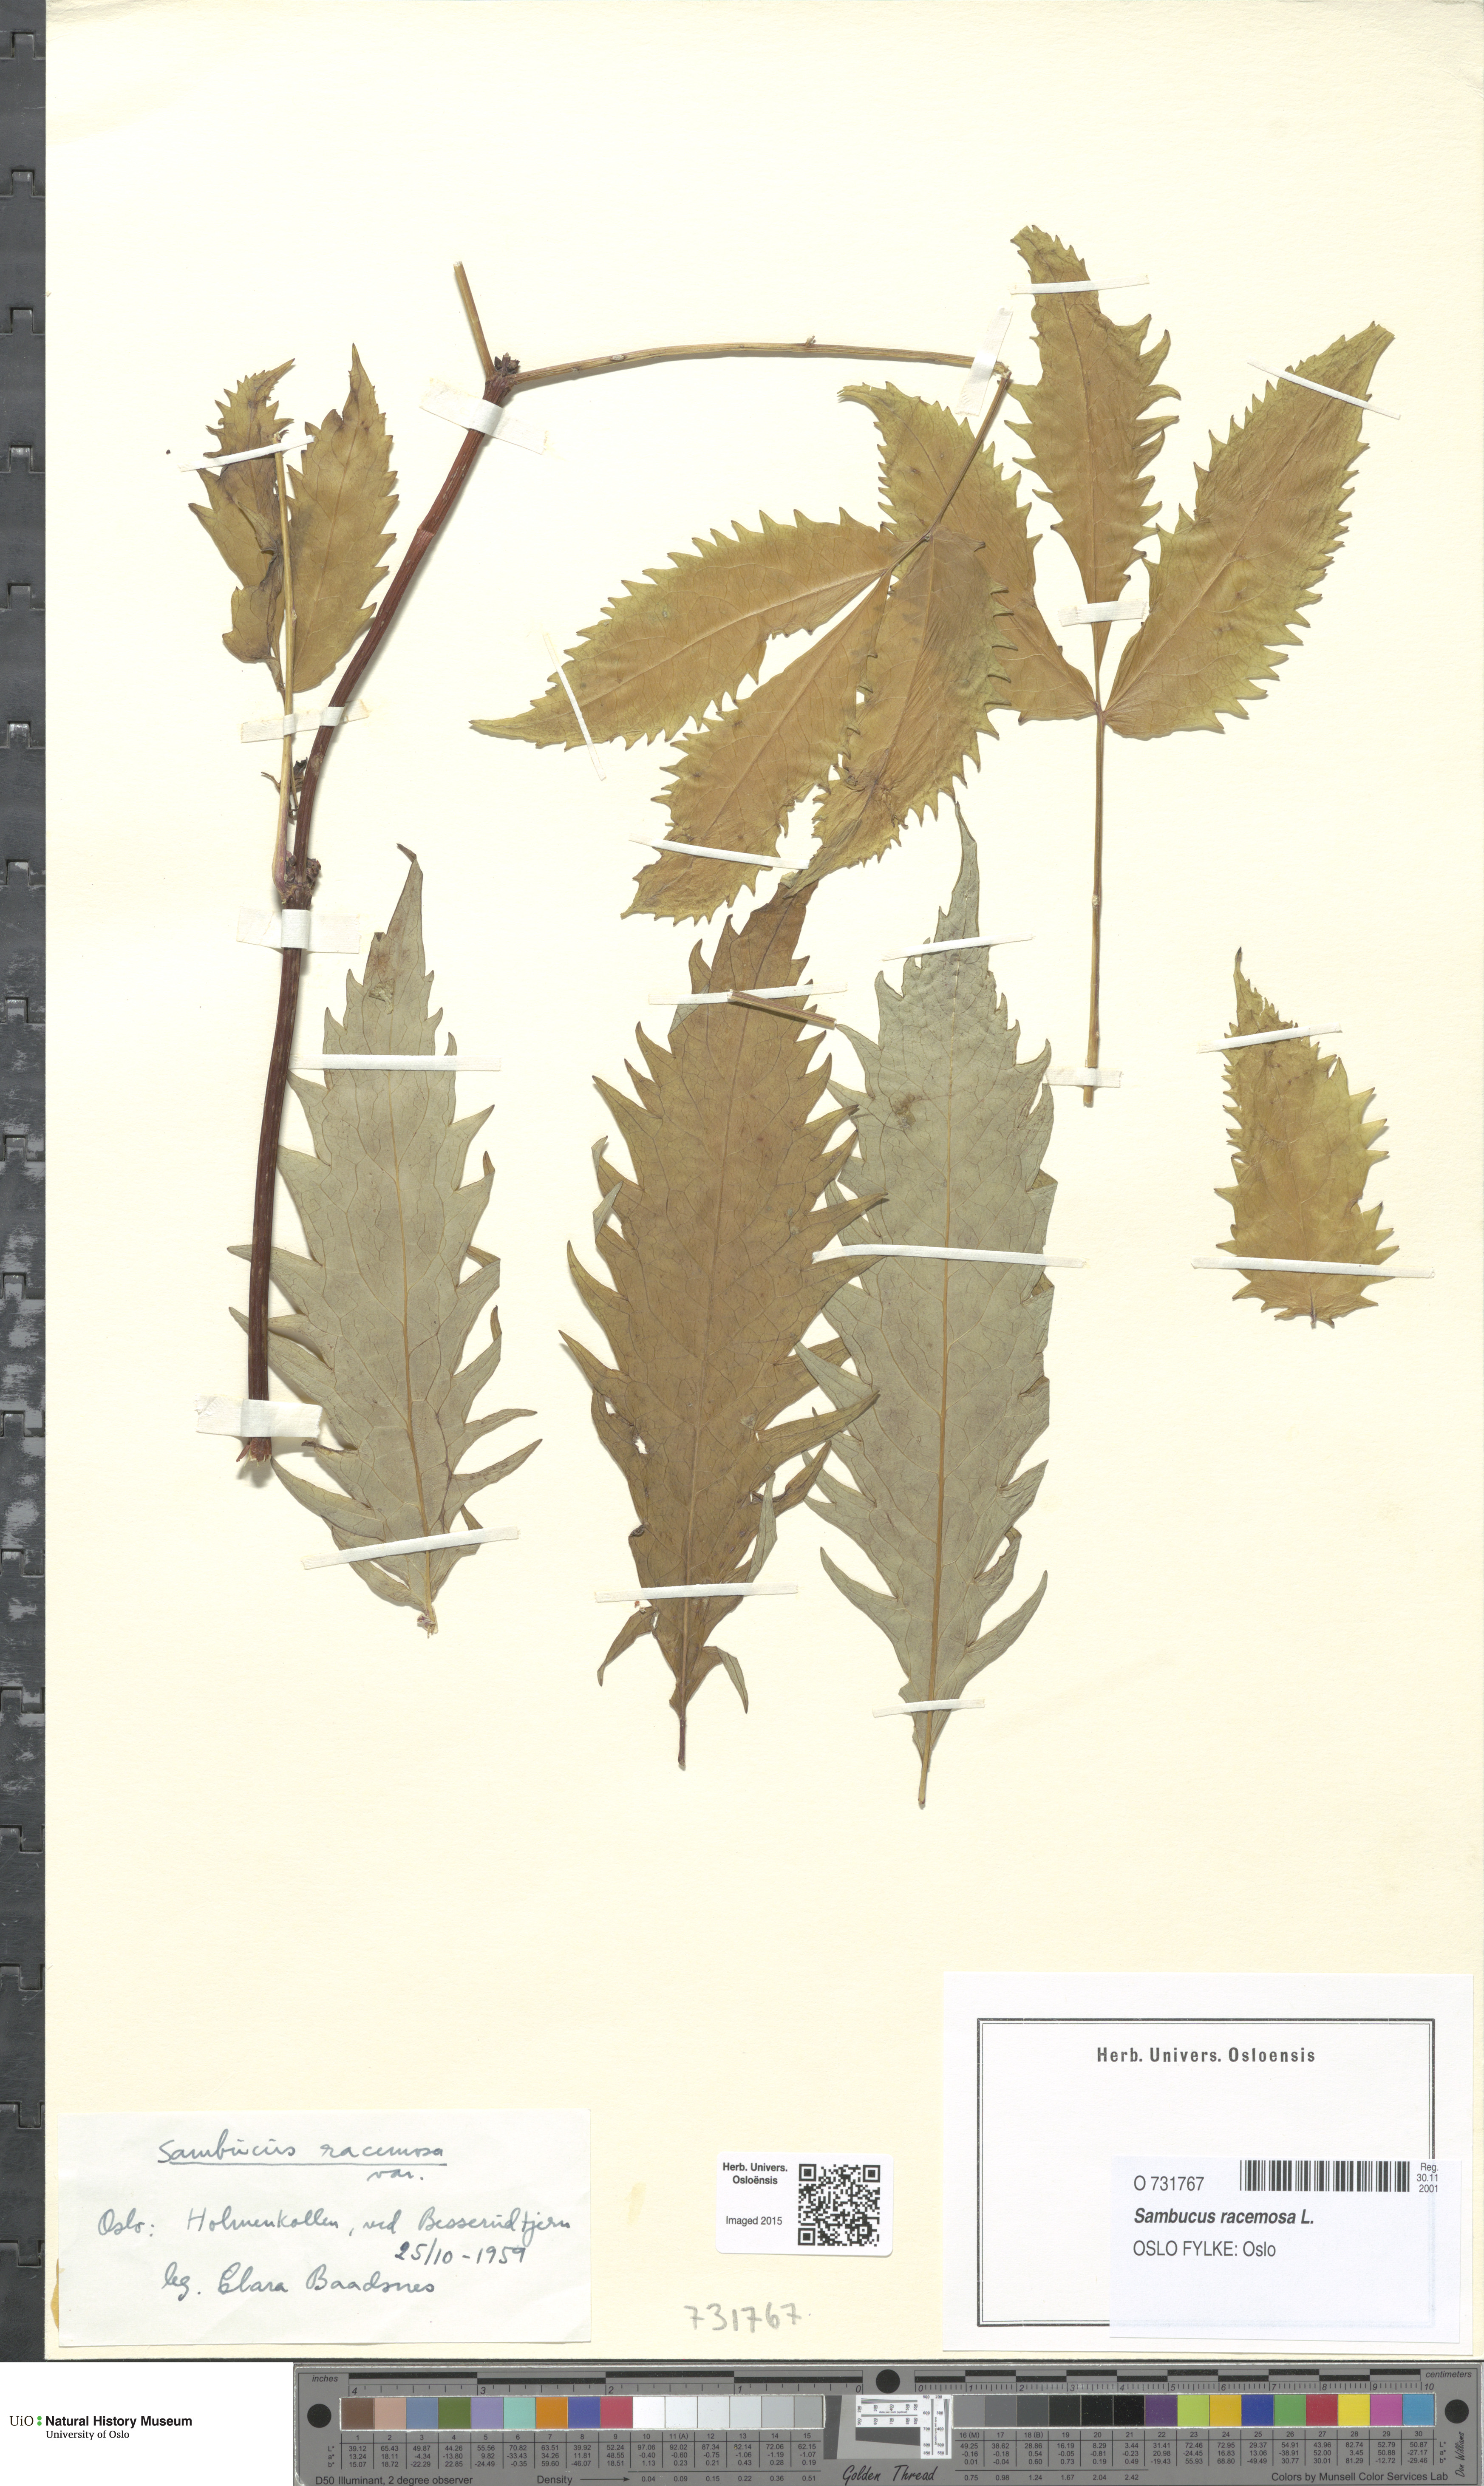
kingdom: Plantae
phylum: Tracheophyta
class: Magnoliopsida
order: Dipsacales
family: Viburnaceae
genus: Sambucus
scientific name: Sambucus racemosa
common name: Red-berried elder
